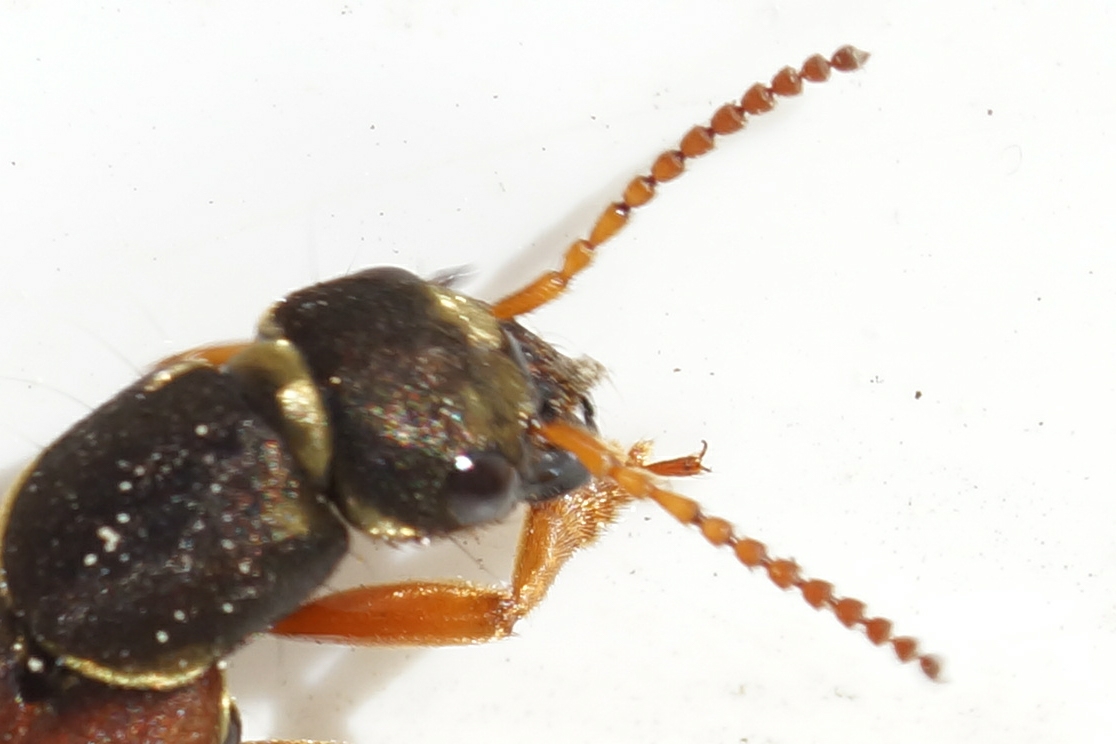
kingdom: Animalia
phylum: Arthropoda
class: Insecta
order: Coleoptera
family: Staphylinidae
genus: Staphylinus
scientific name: Staphylinus caesareus
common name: Kejserrovbille
